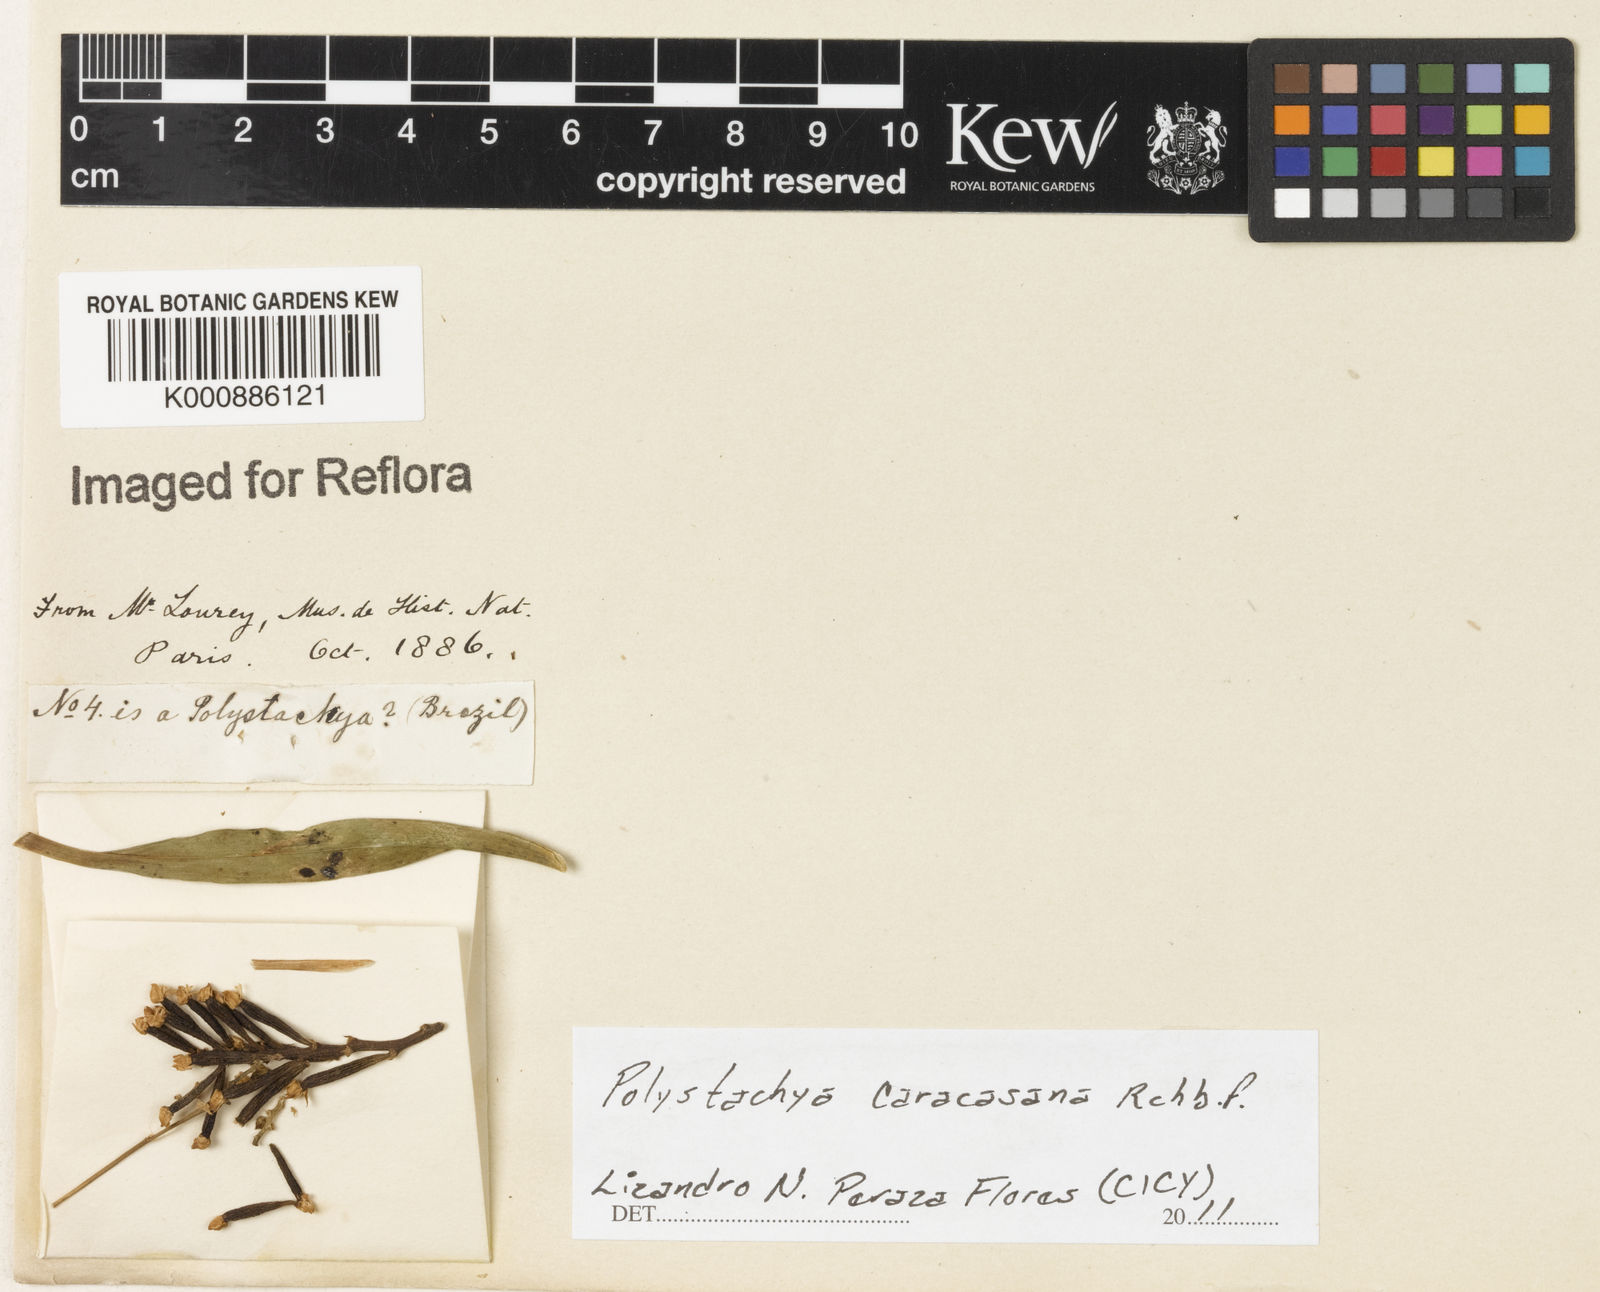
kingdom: Plantae
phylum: Tracheophyta
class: Liliopsida
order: Asparagales
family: Orchidaceae
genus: Polystachya
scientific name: Polystachya foliosa
